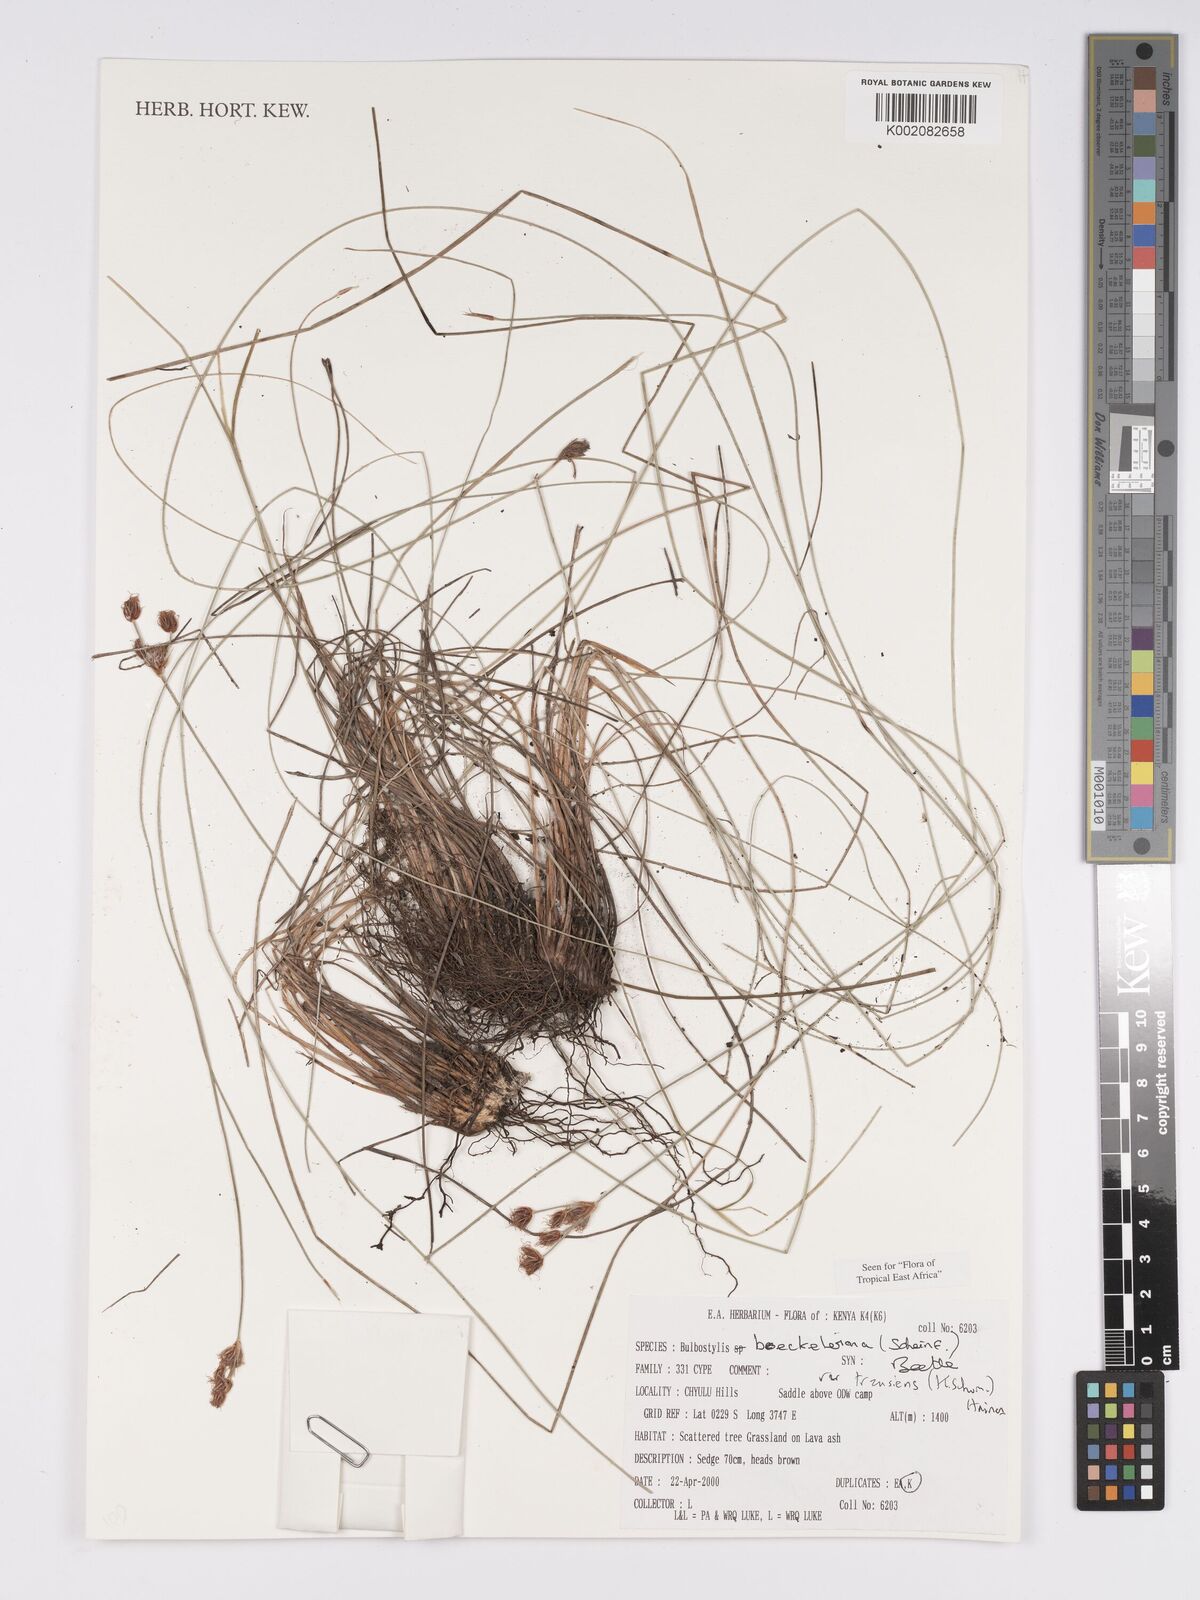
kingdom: Plantae
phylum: Tracheophyta
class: Liliopsida
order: Poales
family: Cyperaceae
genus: Bulbostylis
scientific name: Bulbostylis boeckeleriana
